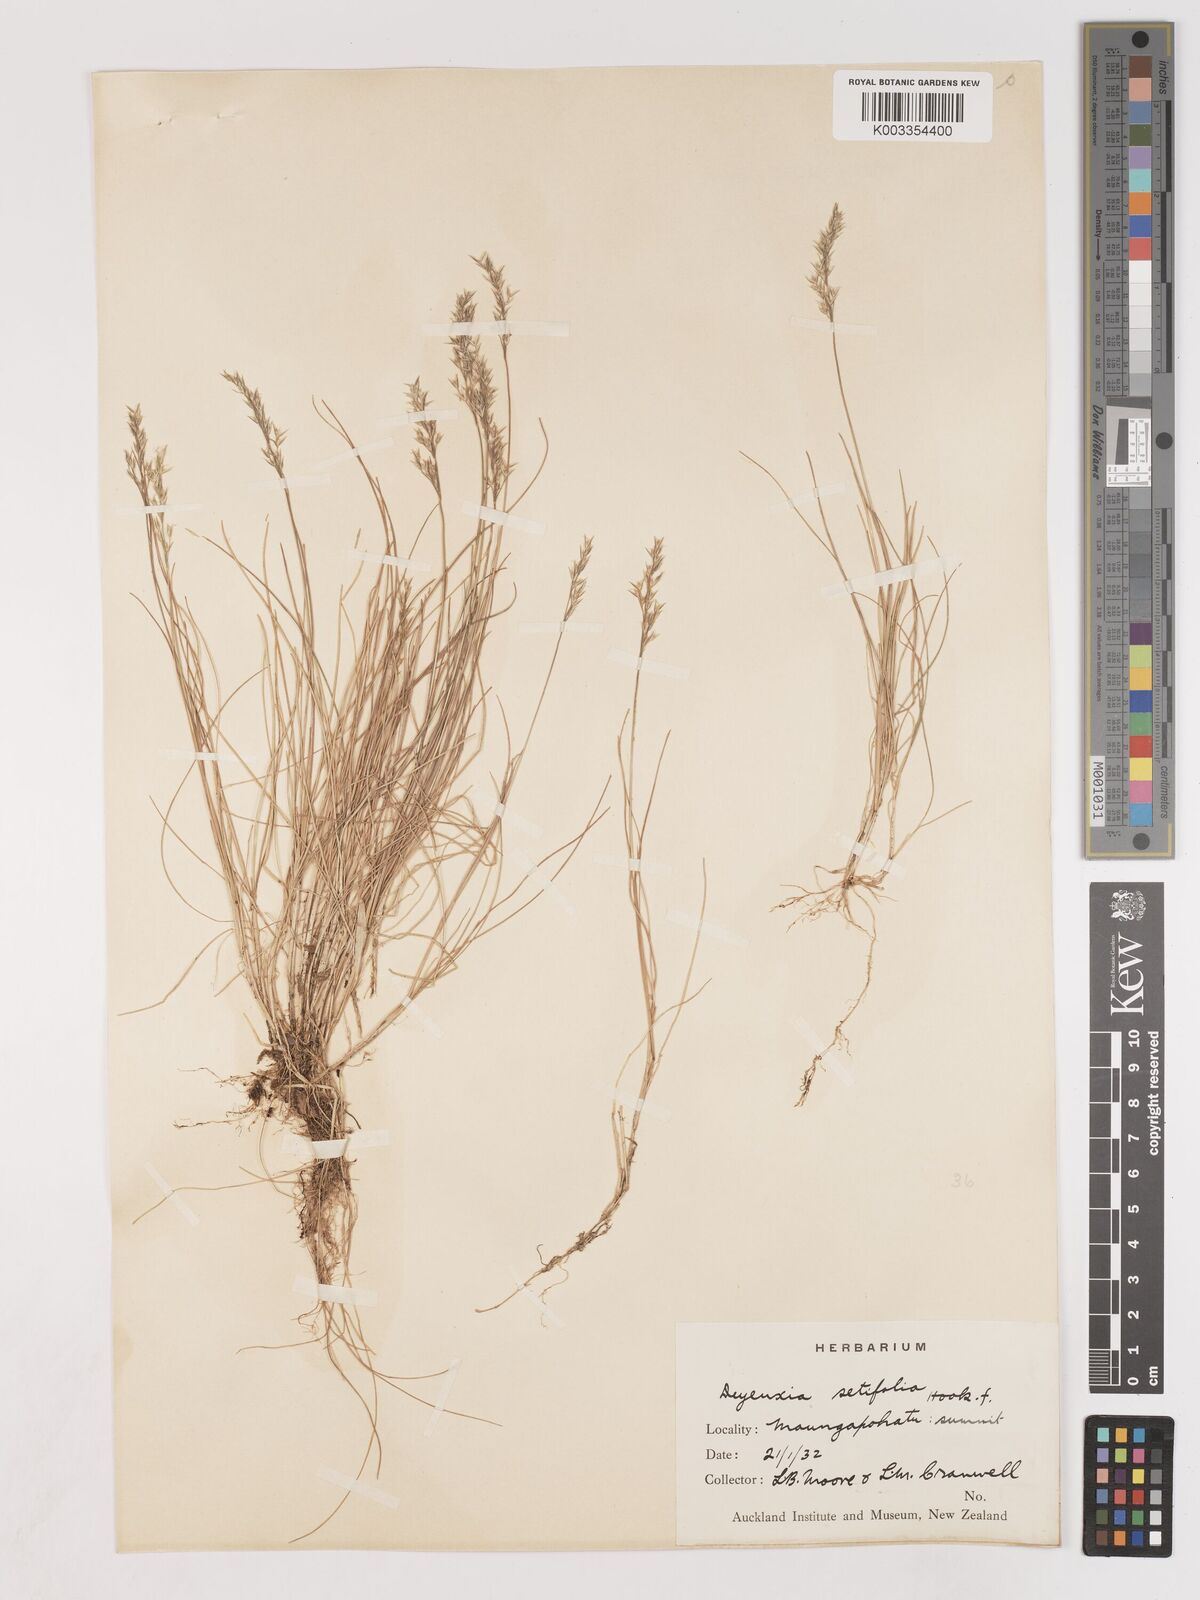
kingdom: Plantae
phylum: Tracheophyta
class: Liliopsida
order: Poales
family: Poaceae
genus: Agrostis
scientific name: Agrostis aucklandica
